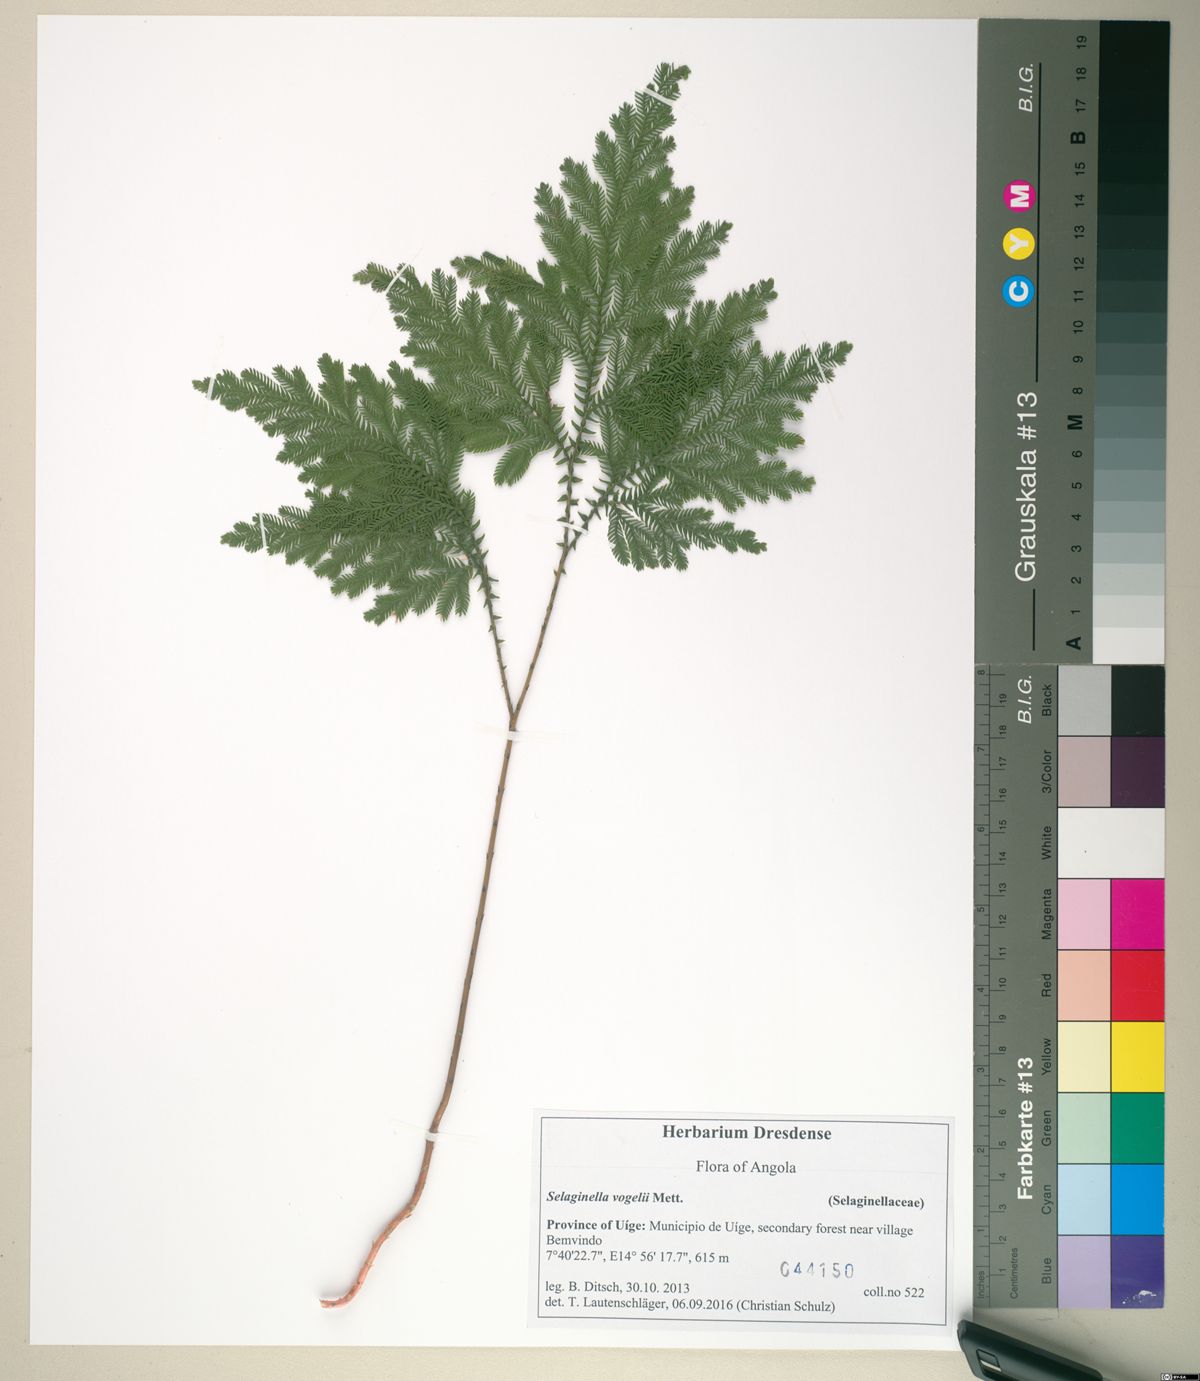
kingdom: Plantae
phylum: Tracheophyta
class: Lycopodiopsida
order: Selaginellales
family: Selaginellaceae
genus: Selaginella
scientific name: Selaginella vogelii
